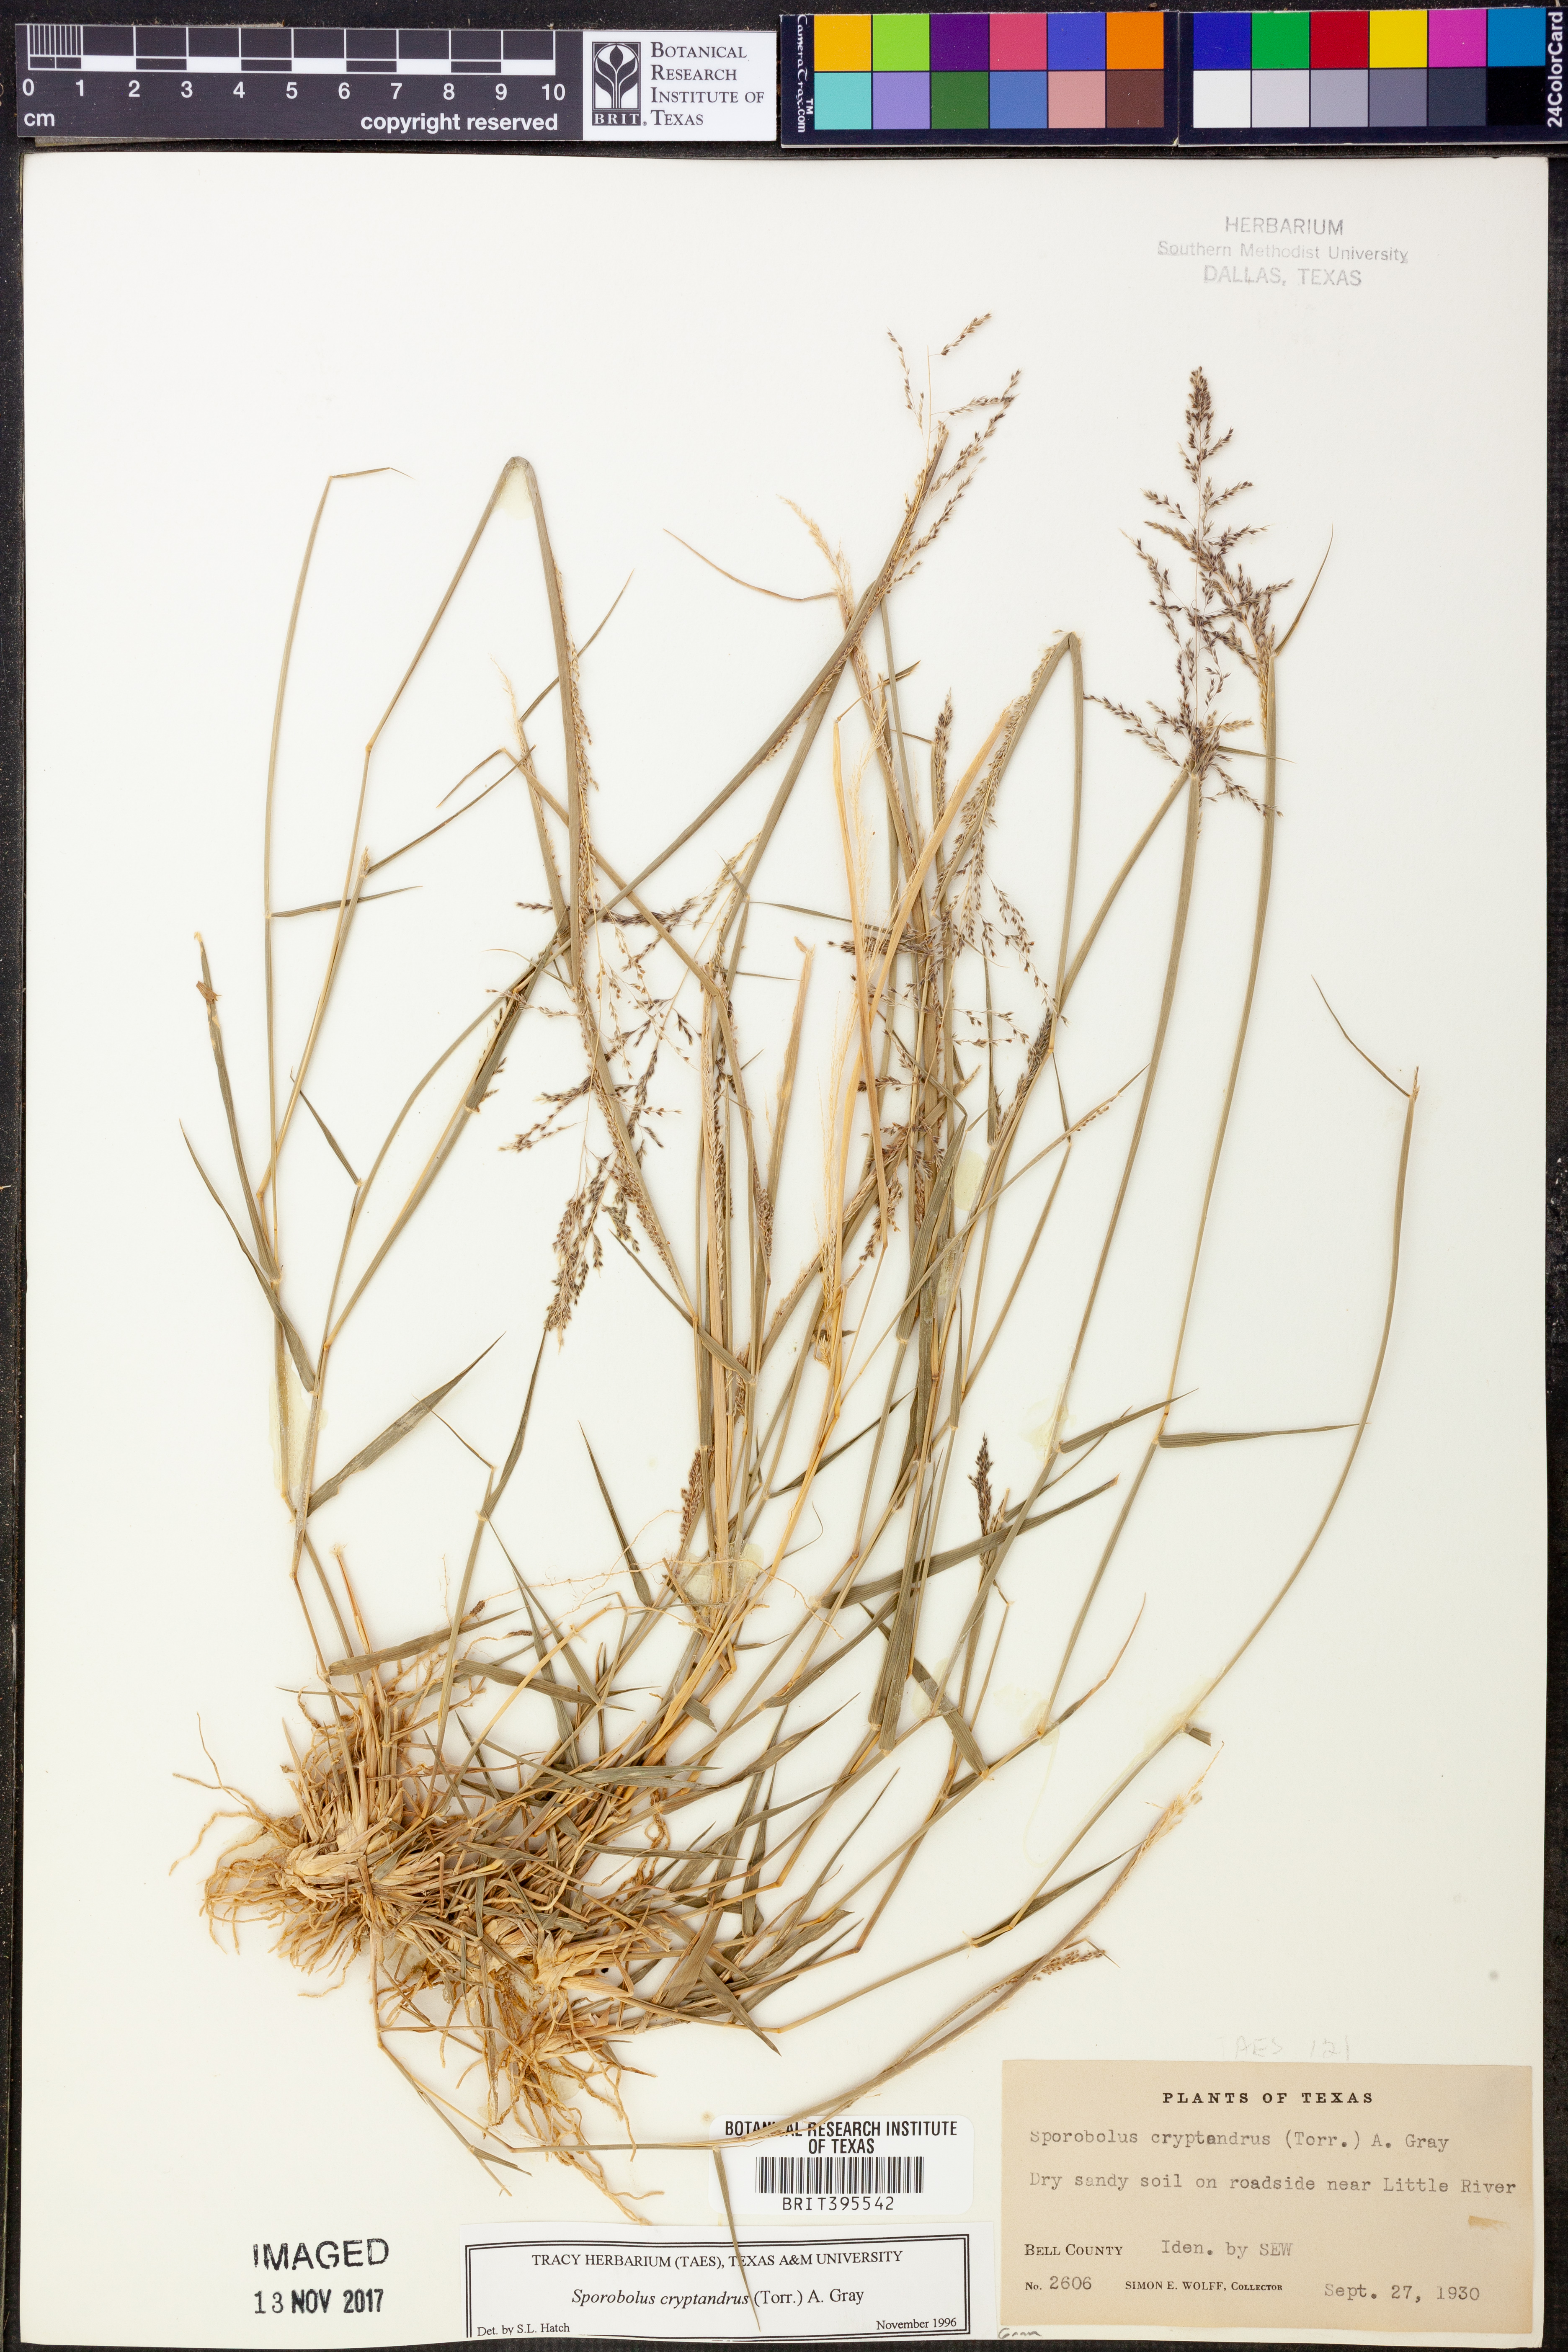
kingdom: Plantae
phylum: Tracheophyta
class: Liliopsida
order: Poales
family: Poaceae
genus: Sporobolus
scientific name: Sporobolus cryptandrus
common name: Sand dropseed
